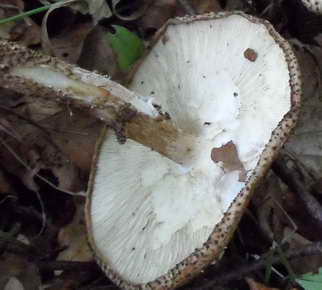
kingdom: Fungi
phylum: Basidiomycota
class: Agaricomycetes
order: Agaricales
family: Agaricaceae
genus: Echinoderma
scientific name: Echinoderma hystrix
